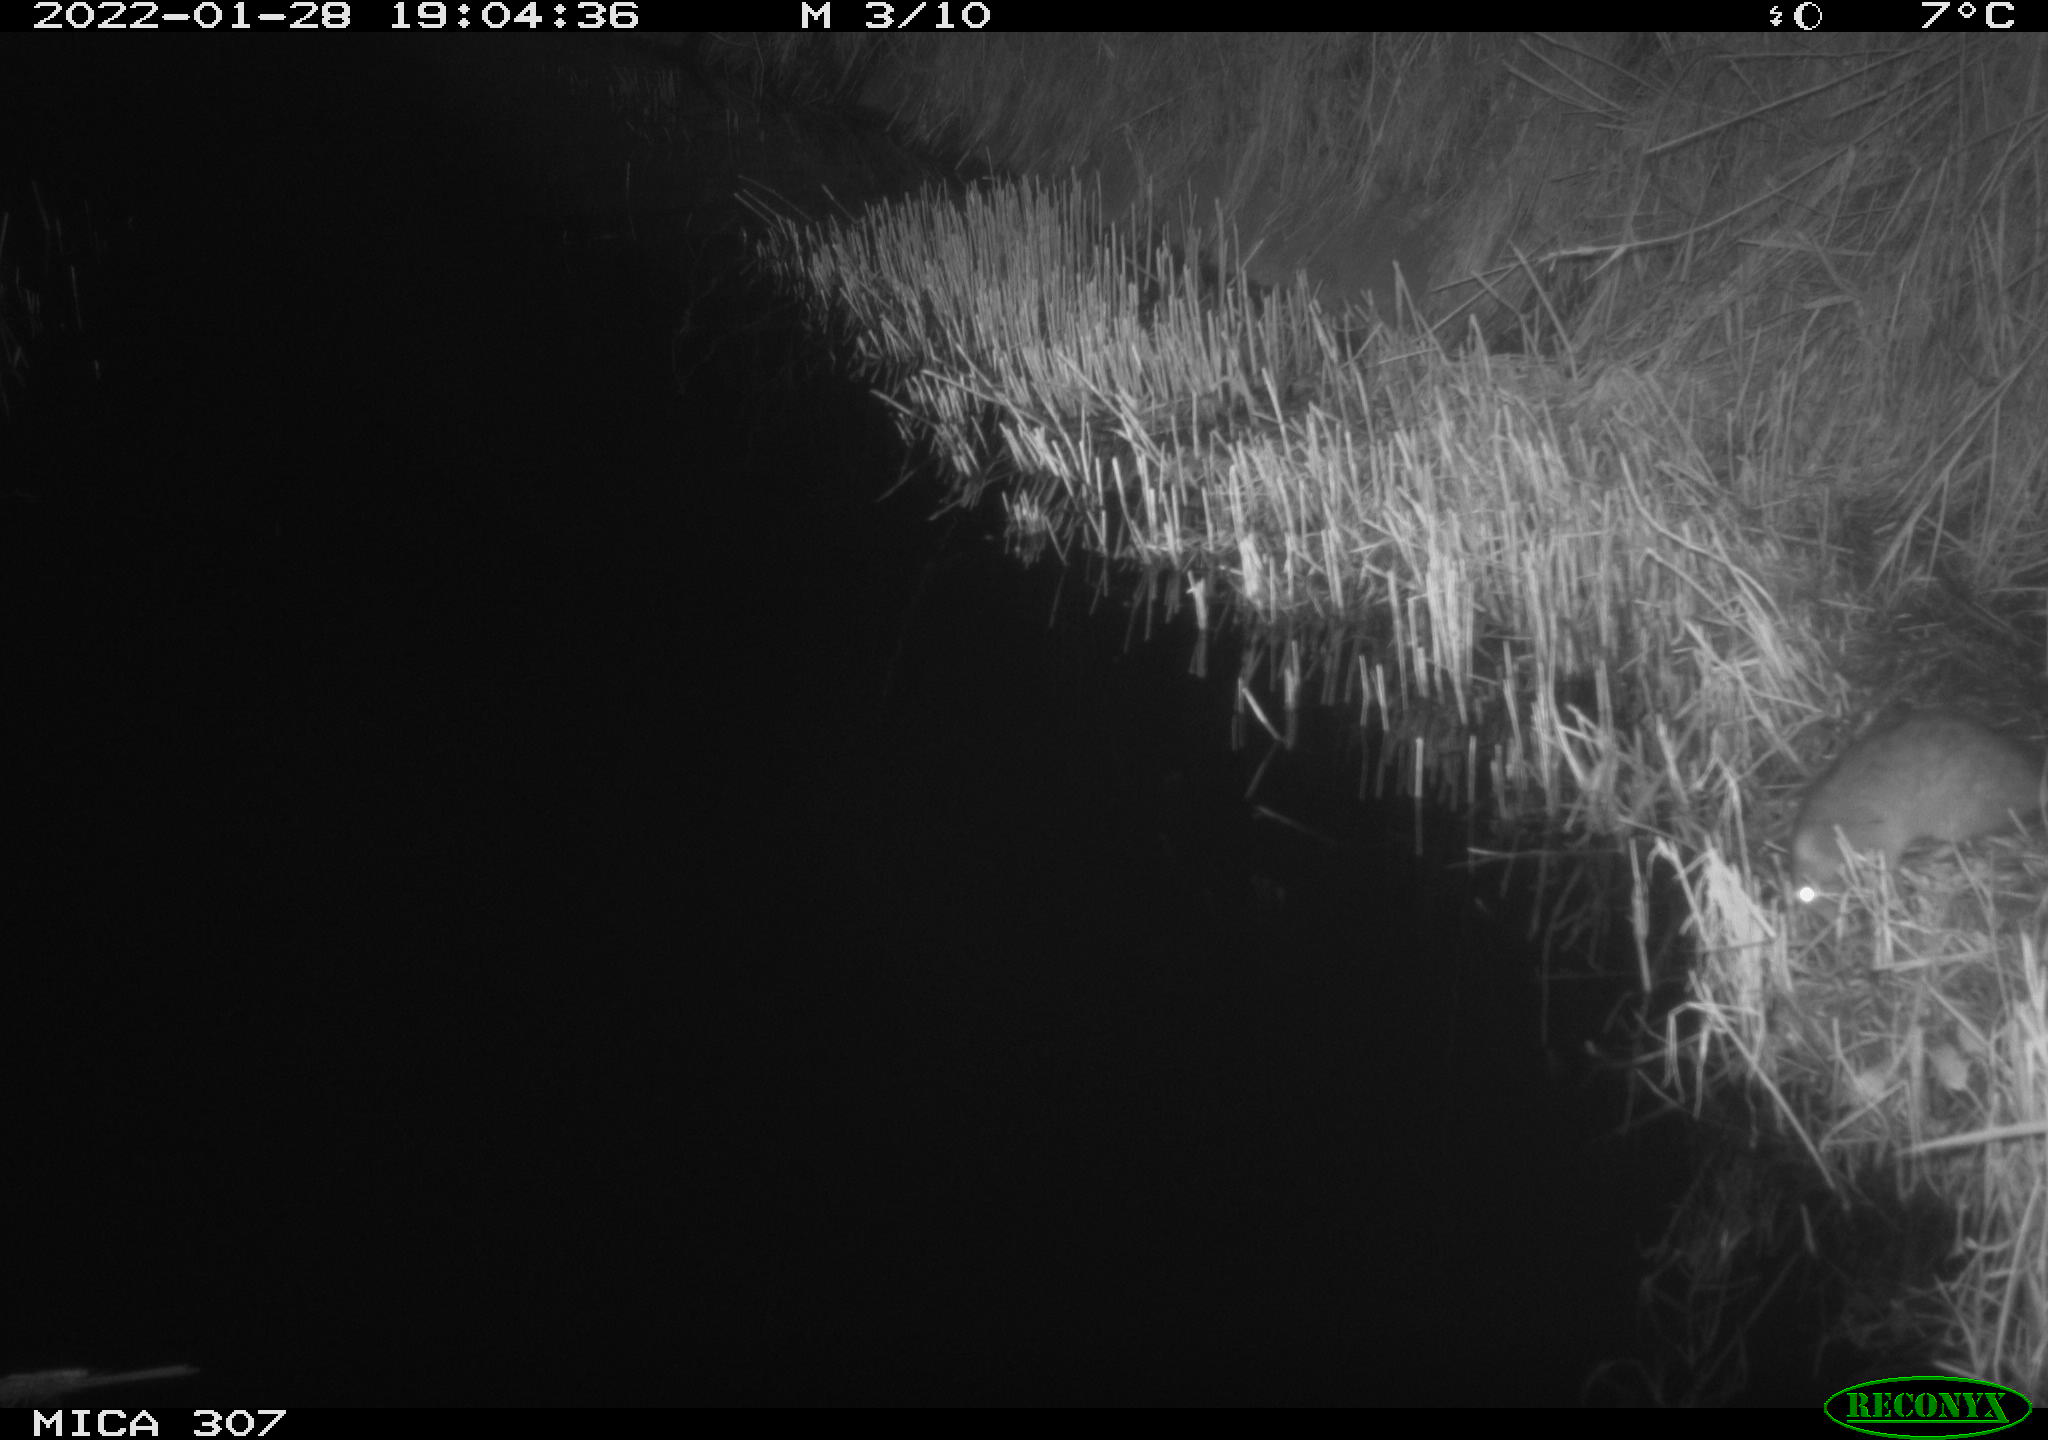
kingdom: Animalia
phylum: Chordata
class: Mammalia
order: Rodentia
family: Muridae
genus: Rattus
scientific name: Rattus norvegicus
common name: Brown rat
